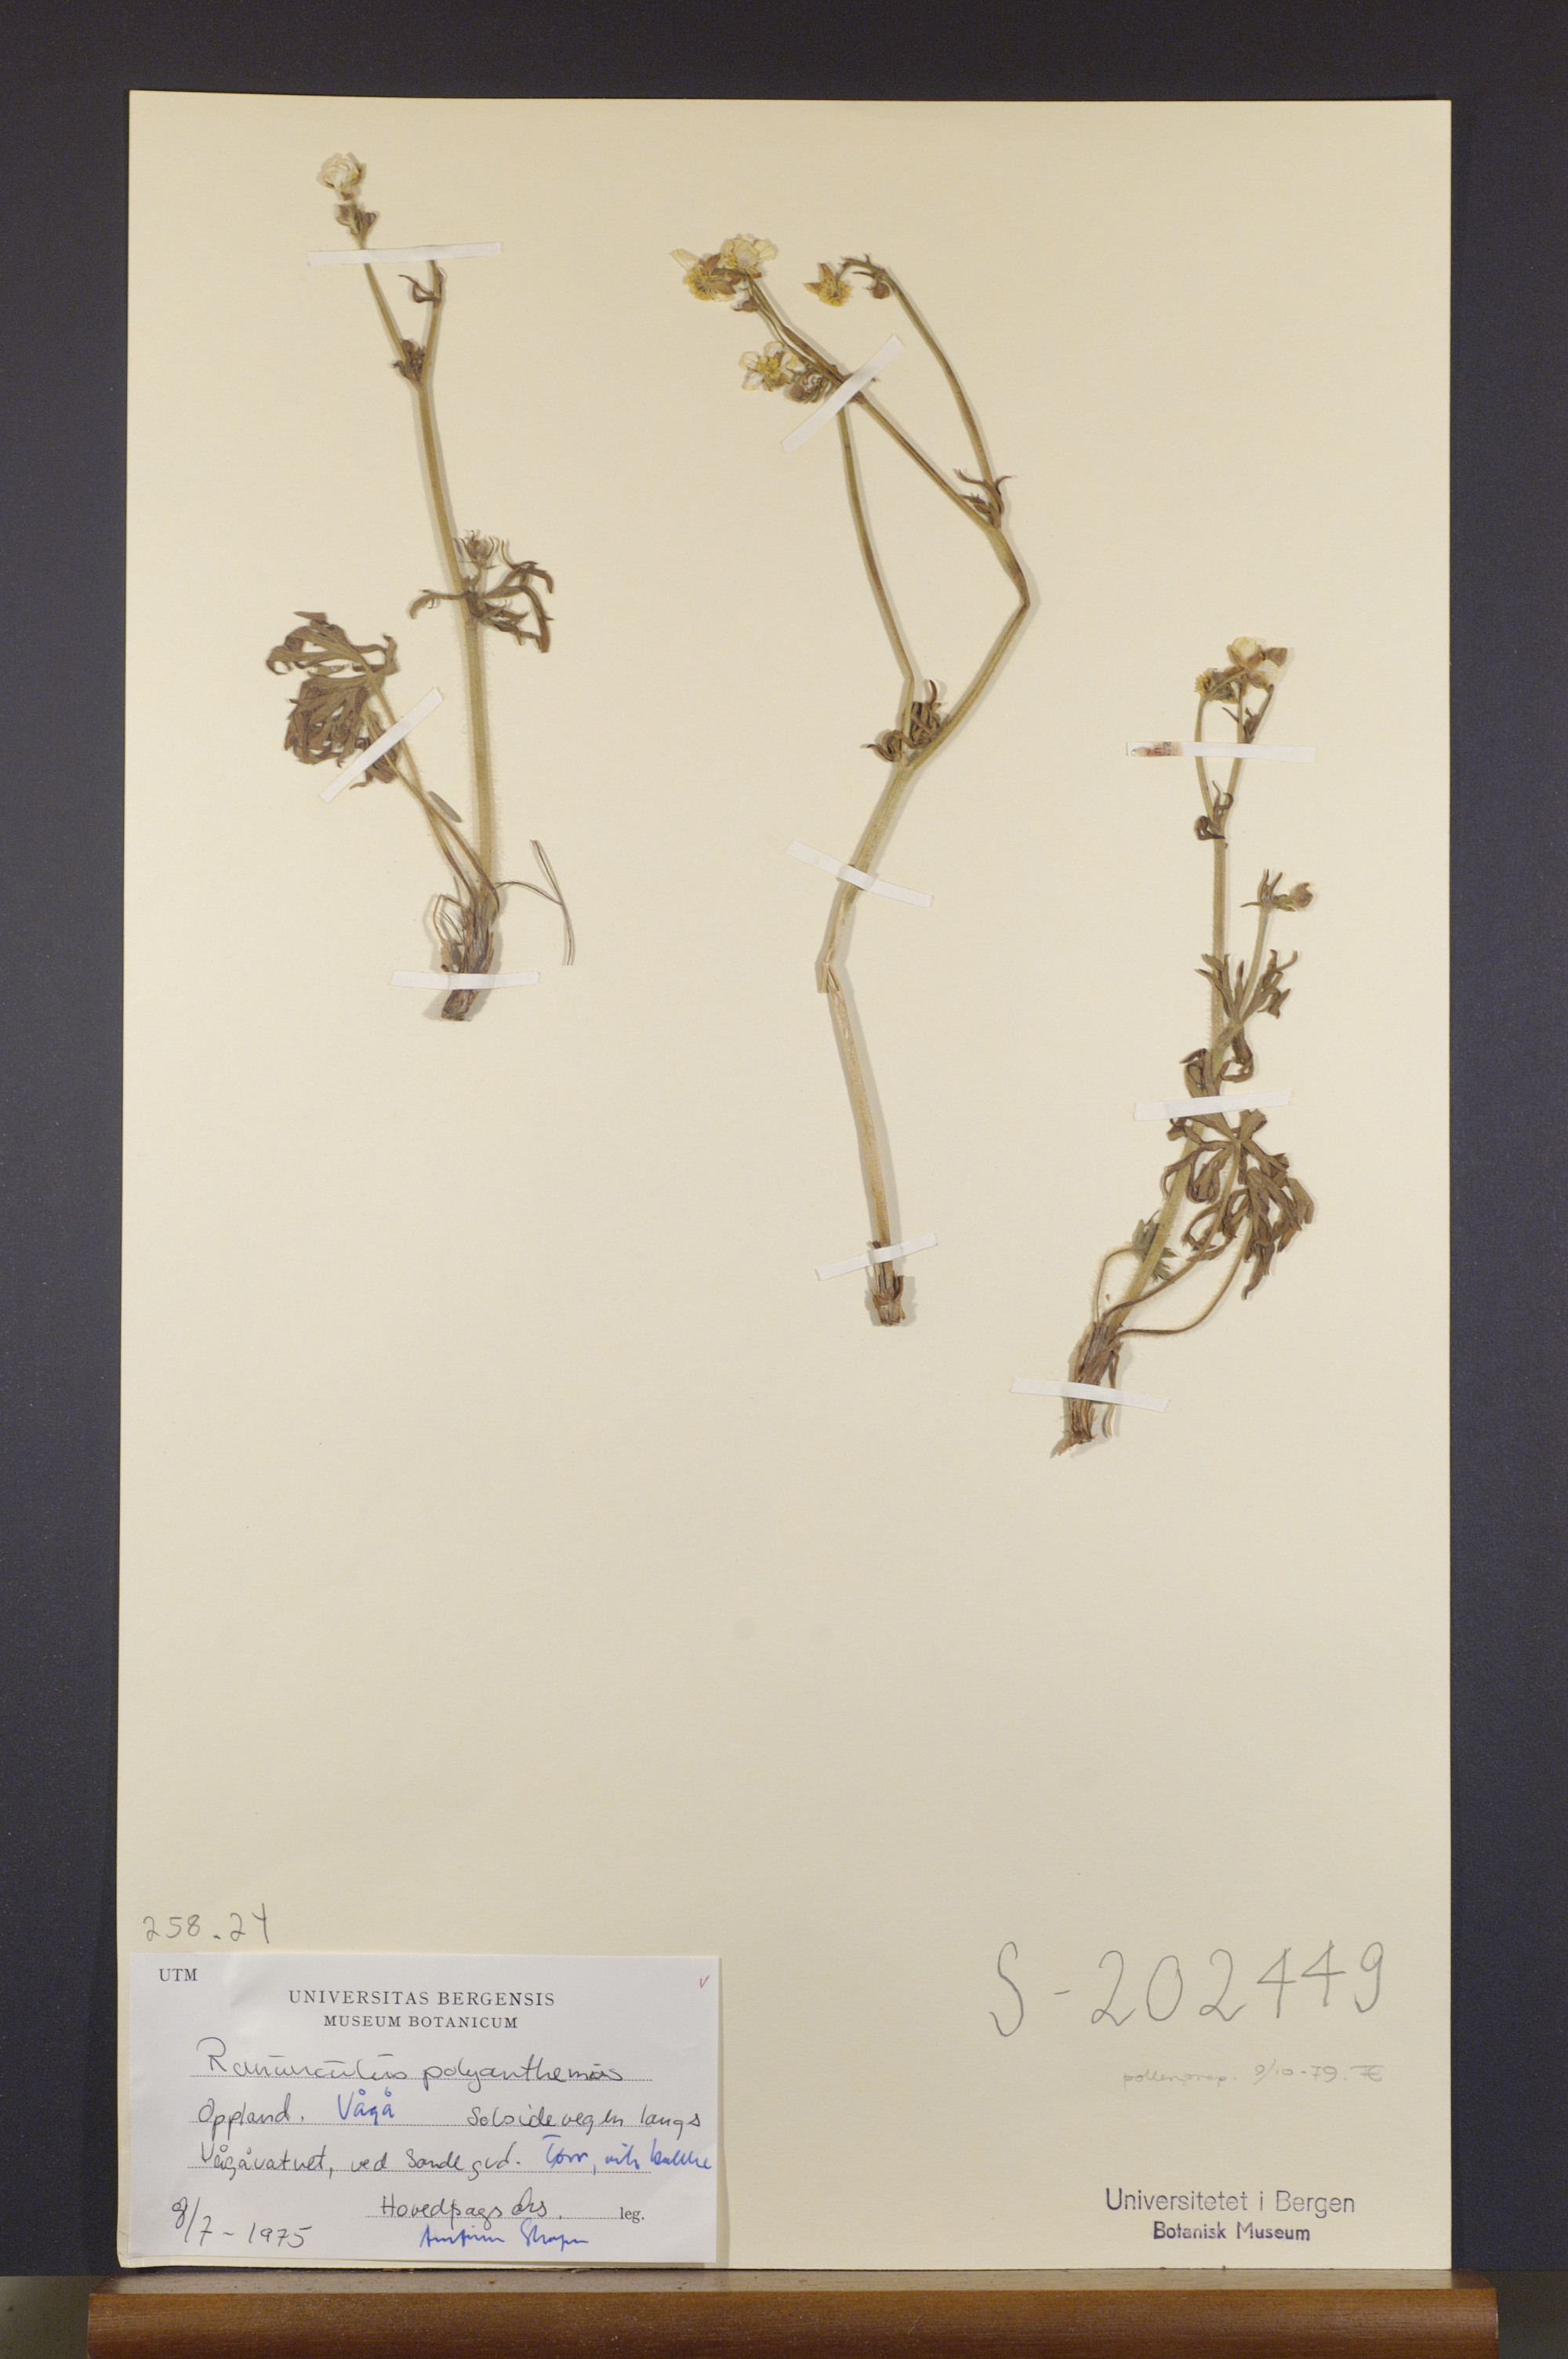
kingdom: Plantae
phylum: Tracheophyta
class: Magnoliopsida
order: Ranunculales
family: Ranunculaceae
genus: Ranunculus
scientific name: Ranunculus polyanthemos
